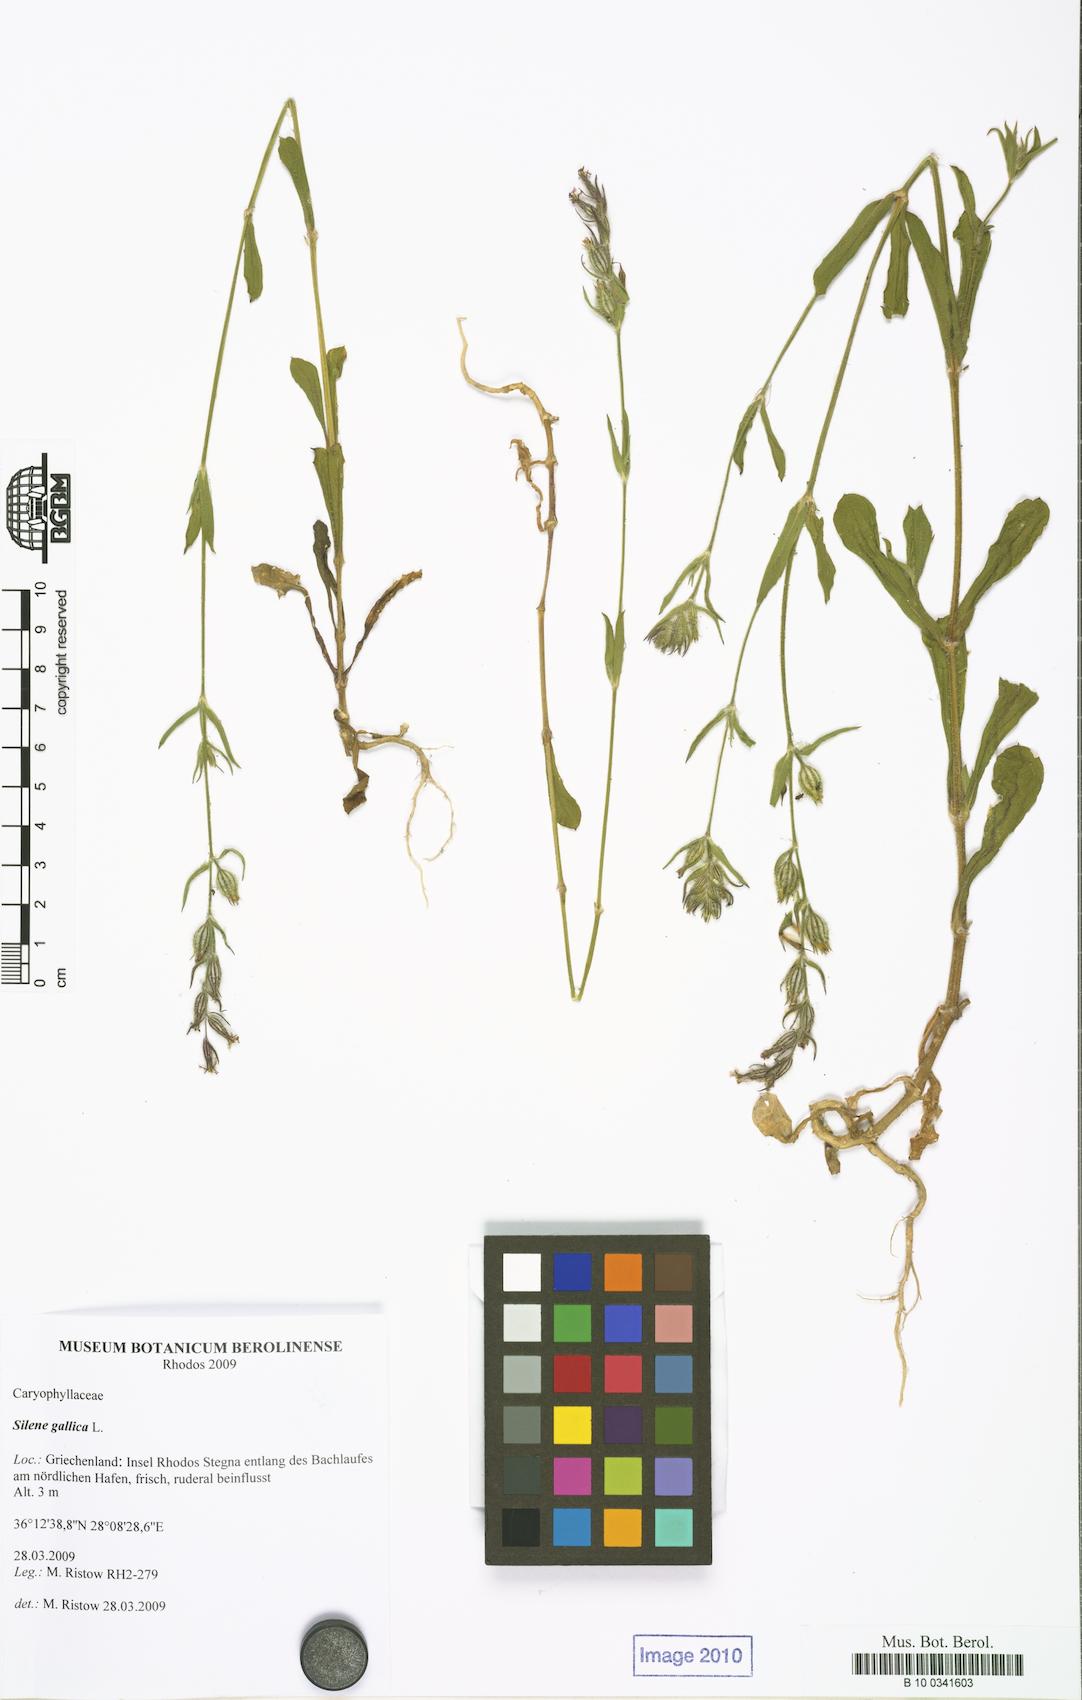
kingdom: Plantae
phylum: Tracheophyta
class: Magnoliopsida
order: Caryophyllales
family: Caryophyllaceae
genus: Silene
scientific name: Silene gallica
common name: Small-flowered catchfly
